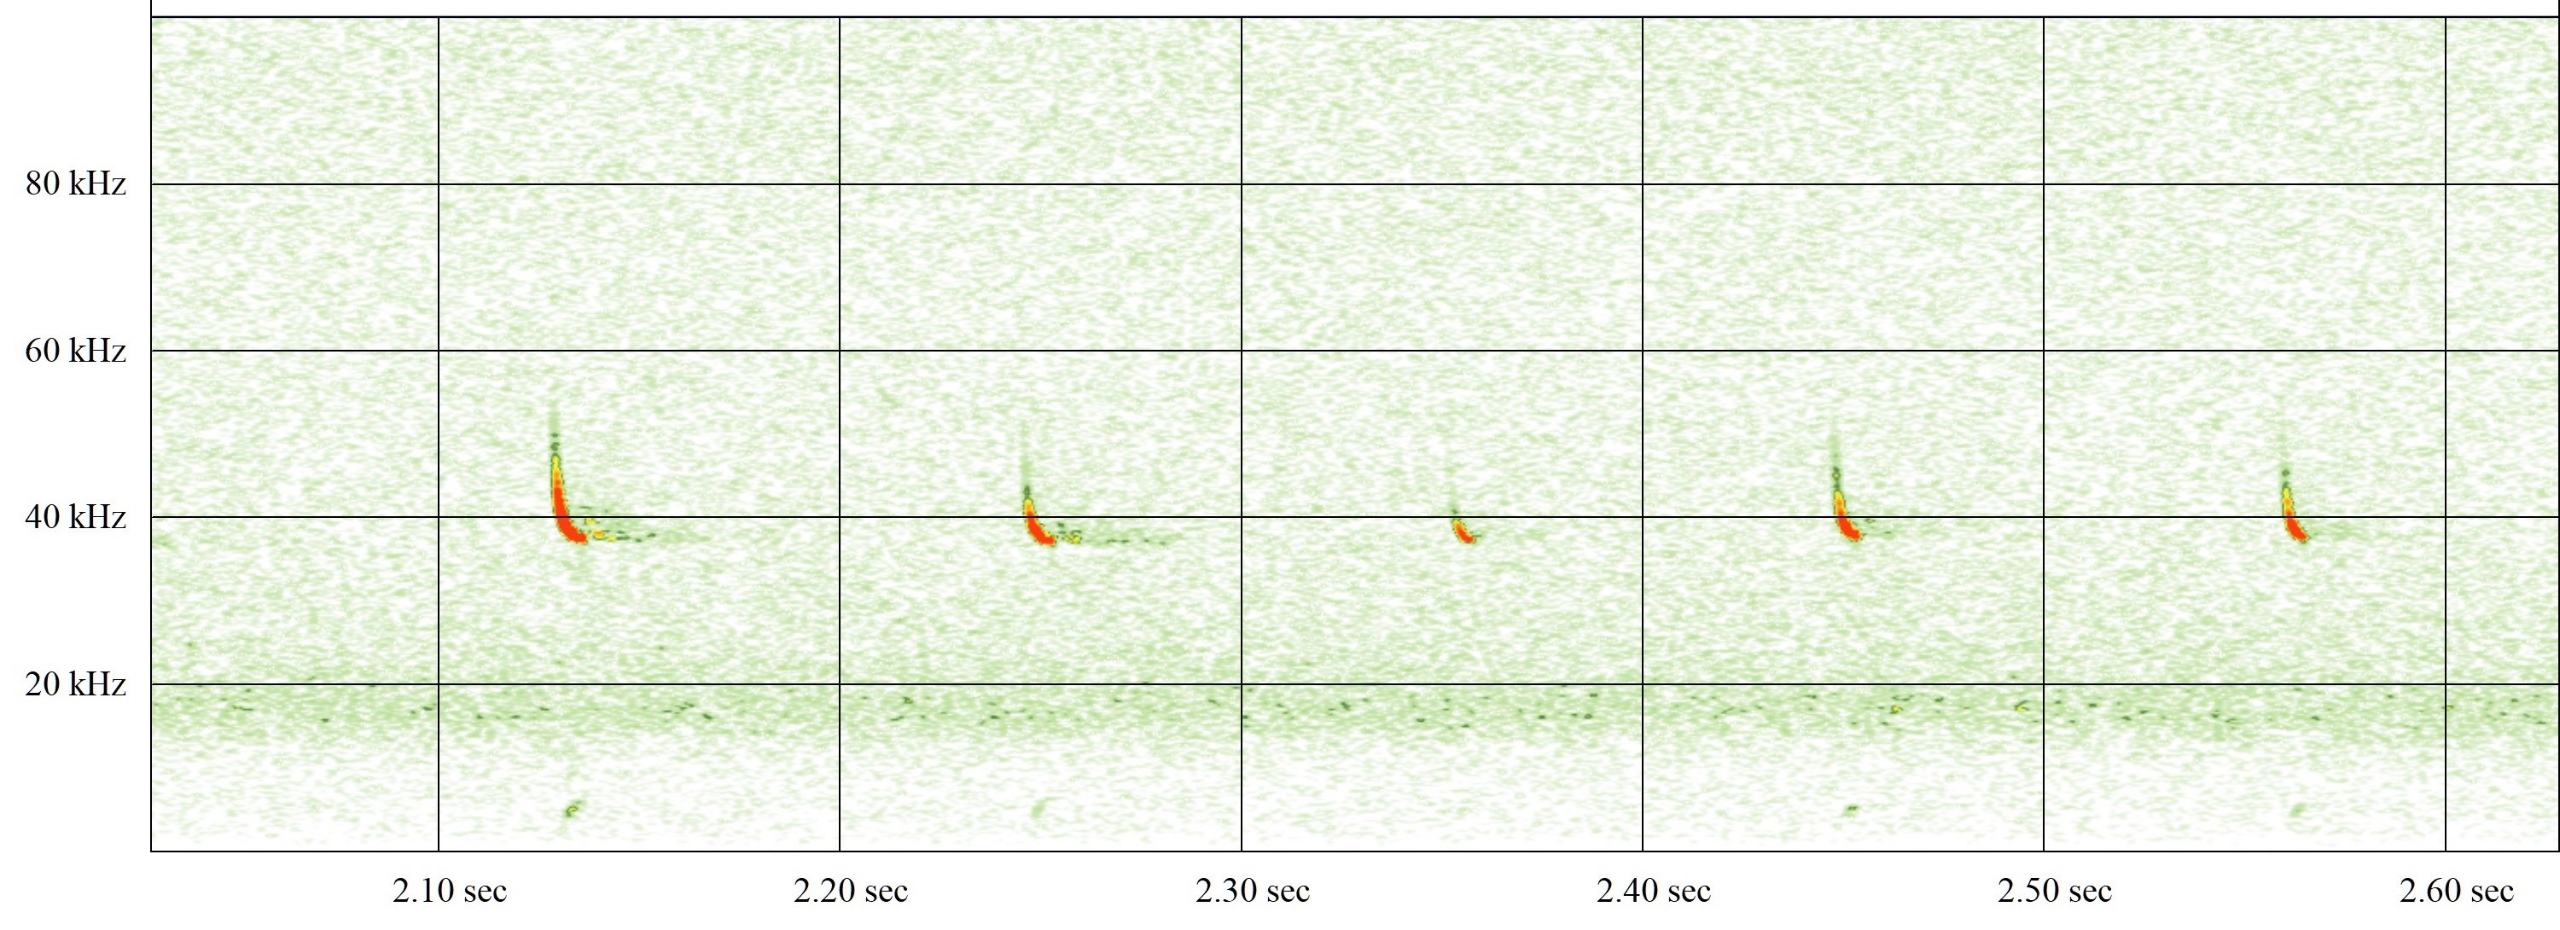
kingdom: Animalia
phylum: Chordata
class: Mammalia
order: Chiroptera
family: Vespertilionidae
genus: Pipistrellus
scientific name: Pipistrellus nathusii
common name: Troldflagermus
